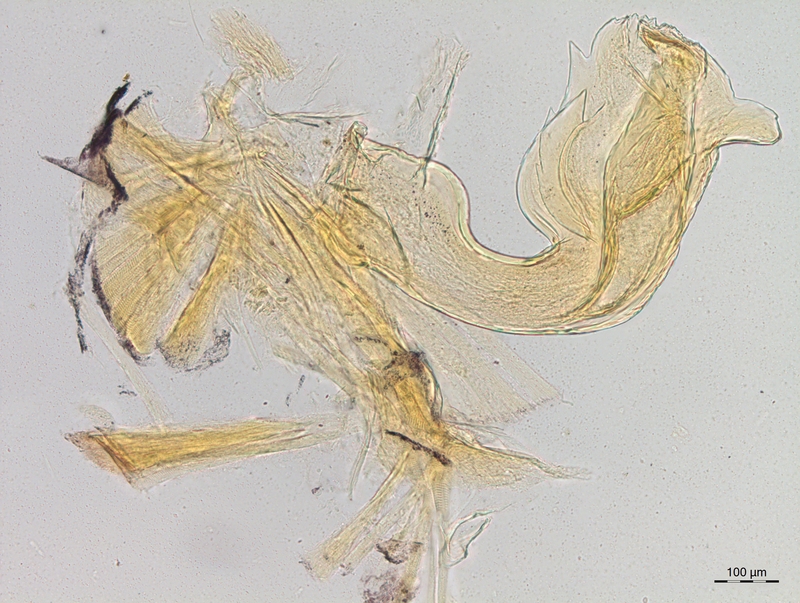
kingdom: Animalia
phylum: Arthropoda
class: Diplopoda
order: Chordeumatida
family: Craspedosomatidae
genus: Craspedosoma
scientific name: Craspedosoma taurinorum
